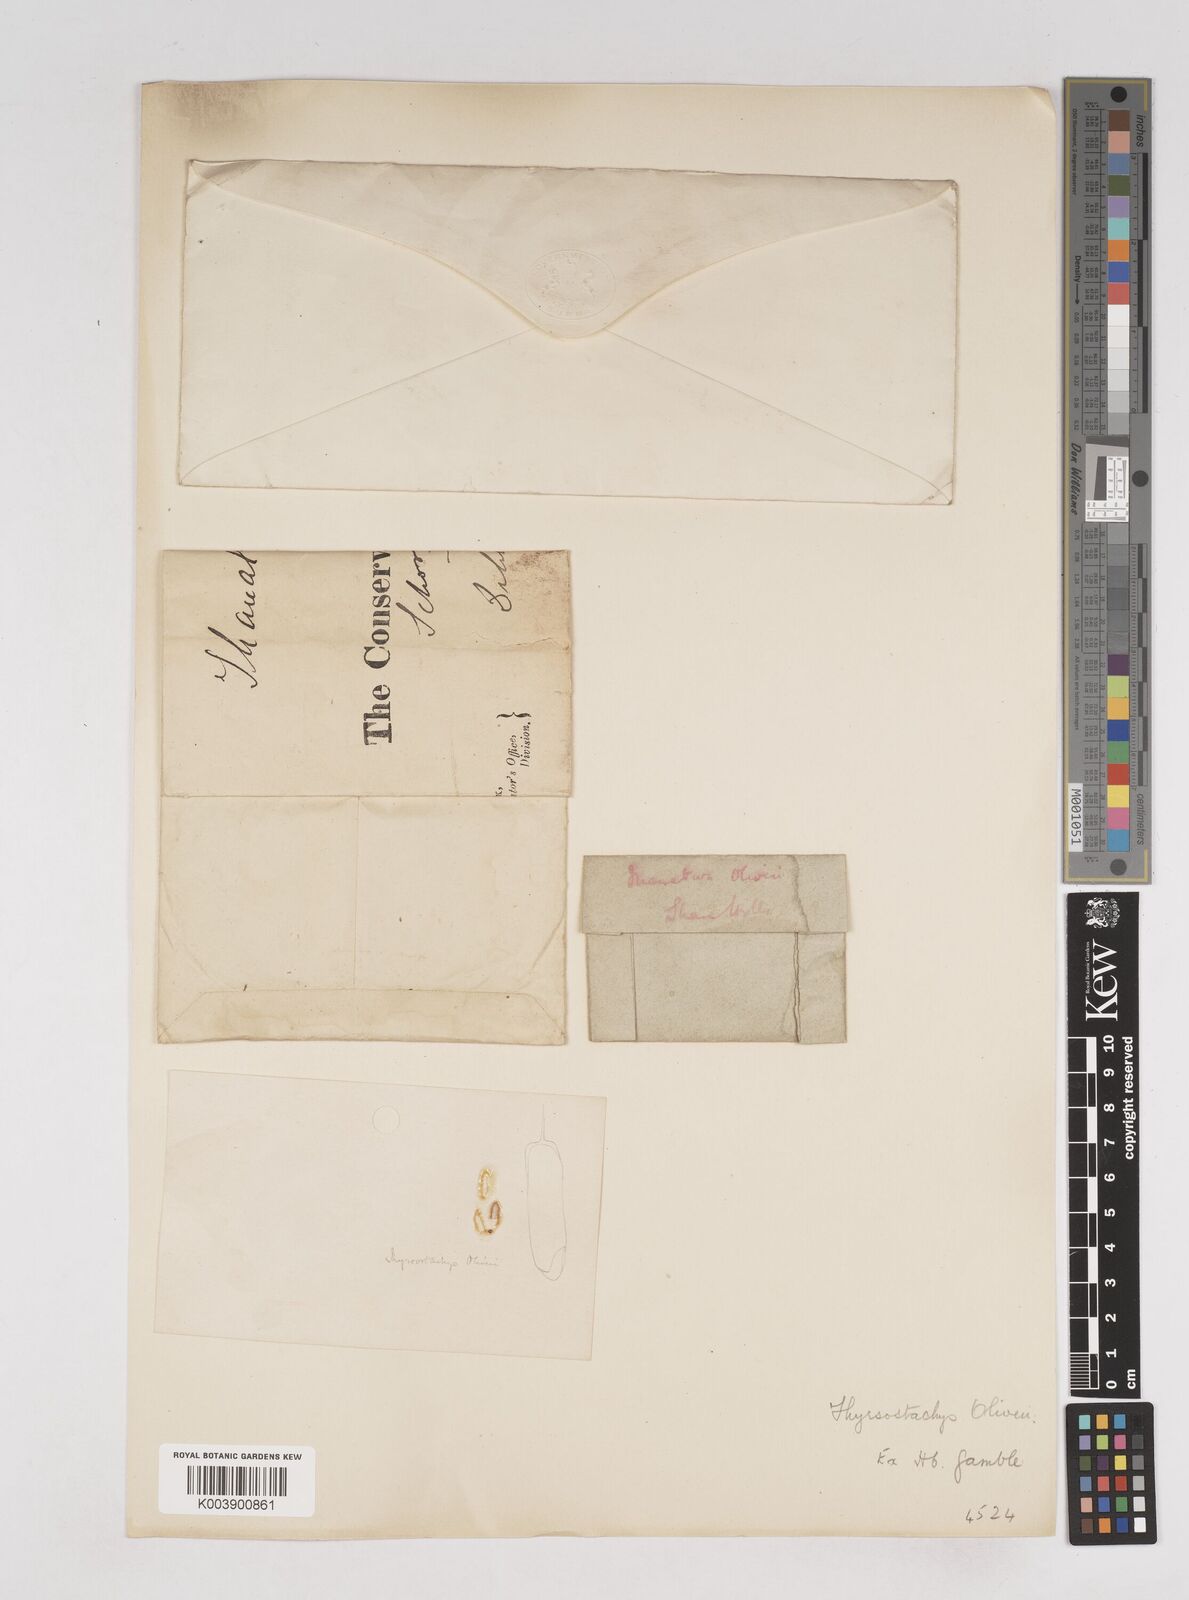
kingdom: Plantae
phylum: Tracheophyta
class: Liliopsida
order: Poales
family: Poaceae
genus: Thyrsostachys
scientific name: Thyrsostachys oliveri
